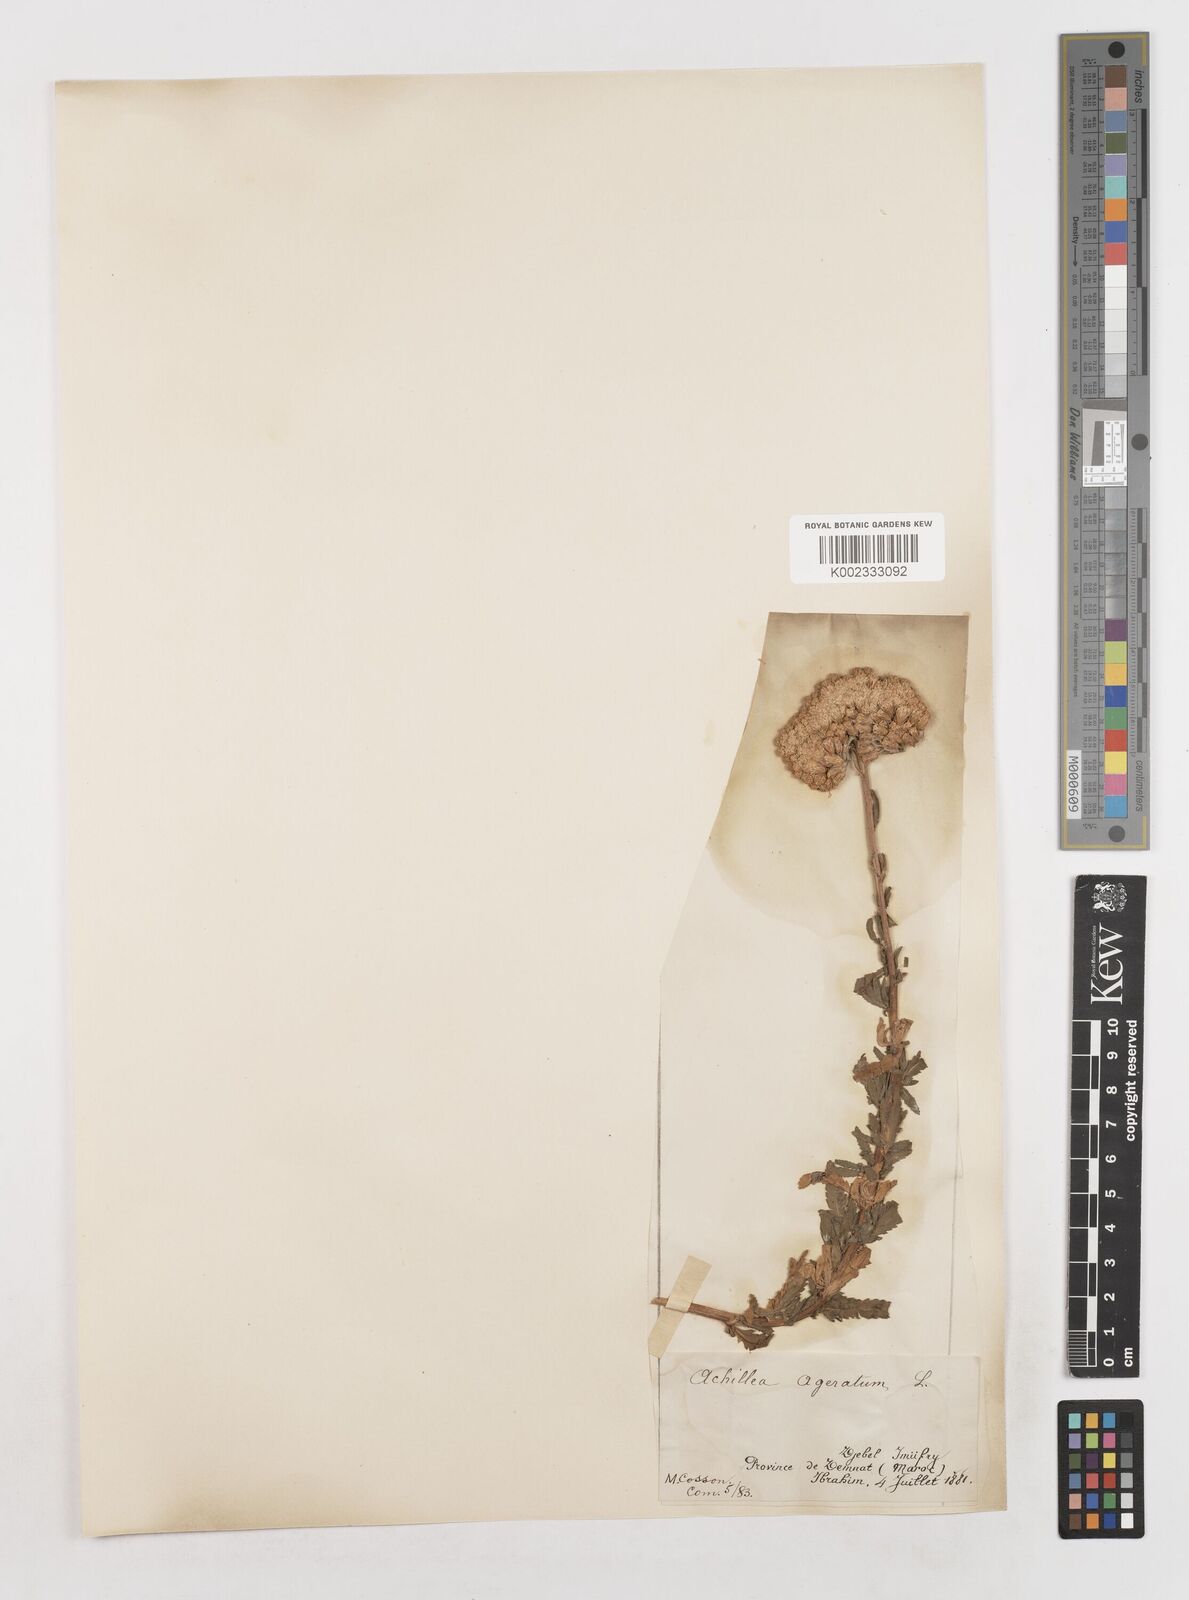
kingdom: Plantae
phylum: Tracheophyta
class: Magnoliopsida
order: Asterales
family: Asteraceae
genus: Achillea
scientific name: Achillea ageratum
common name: Sweet-nancy
